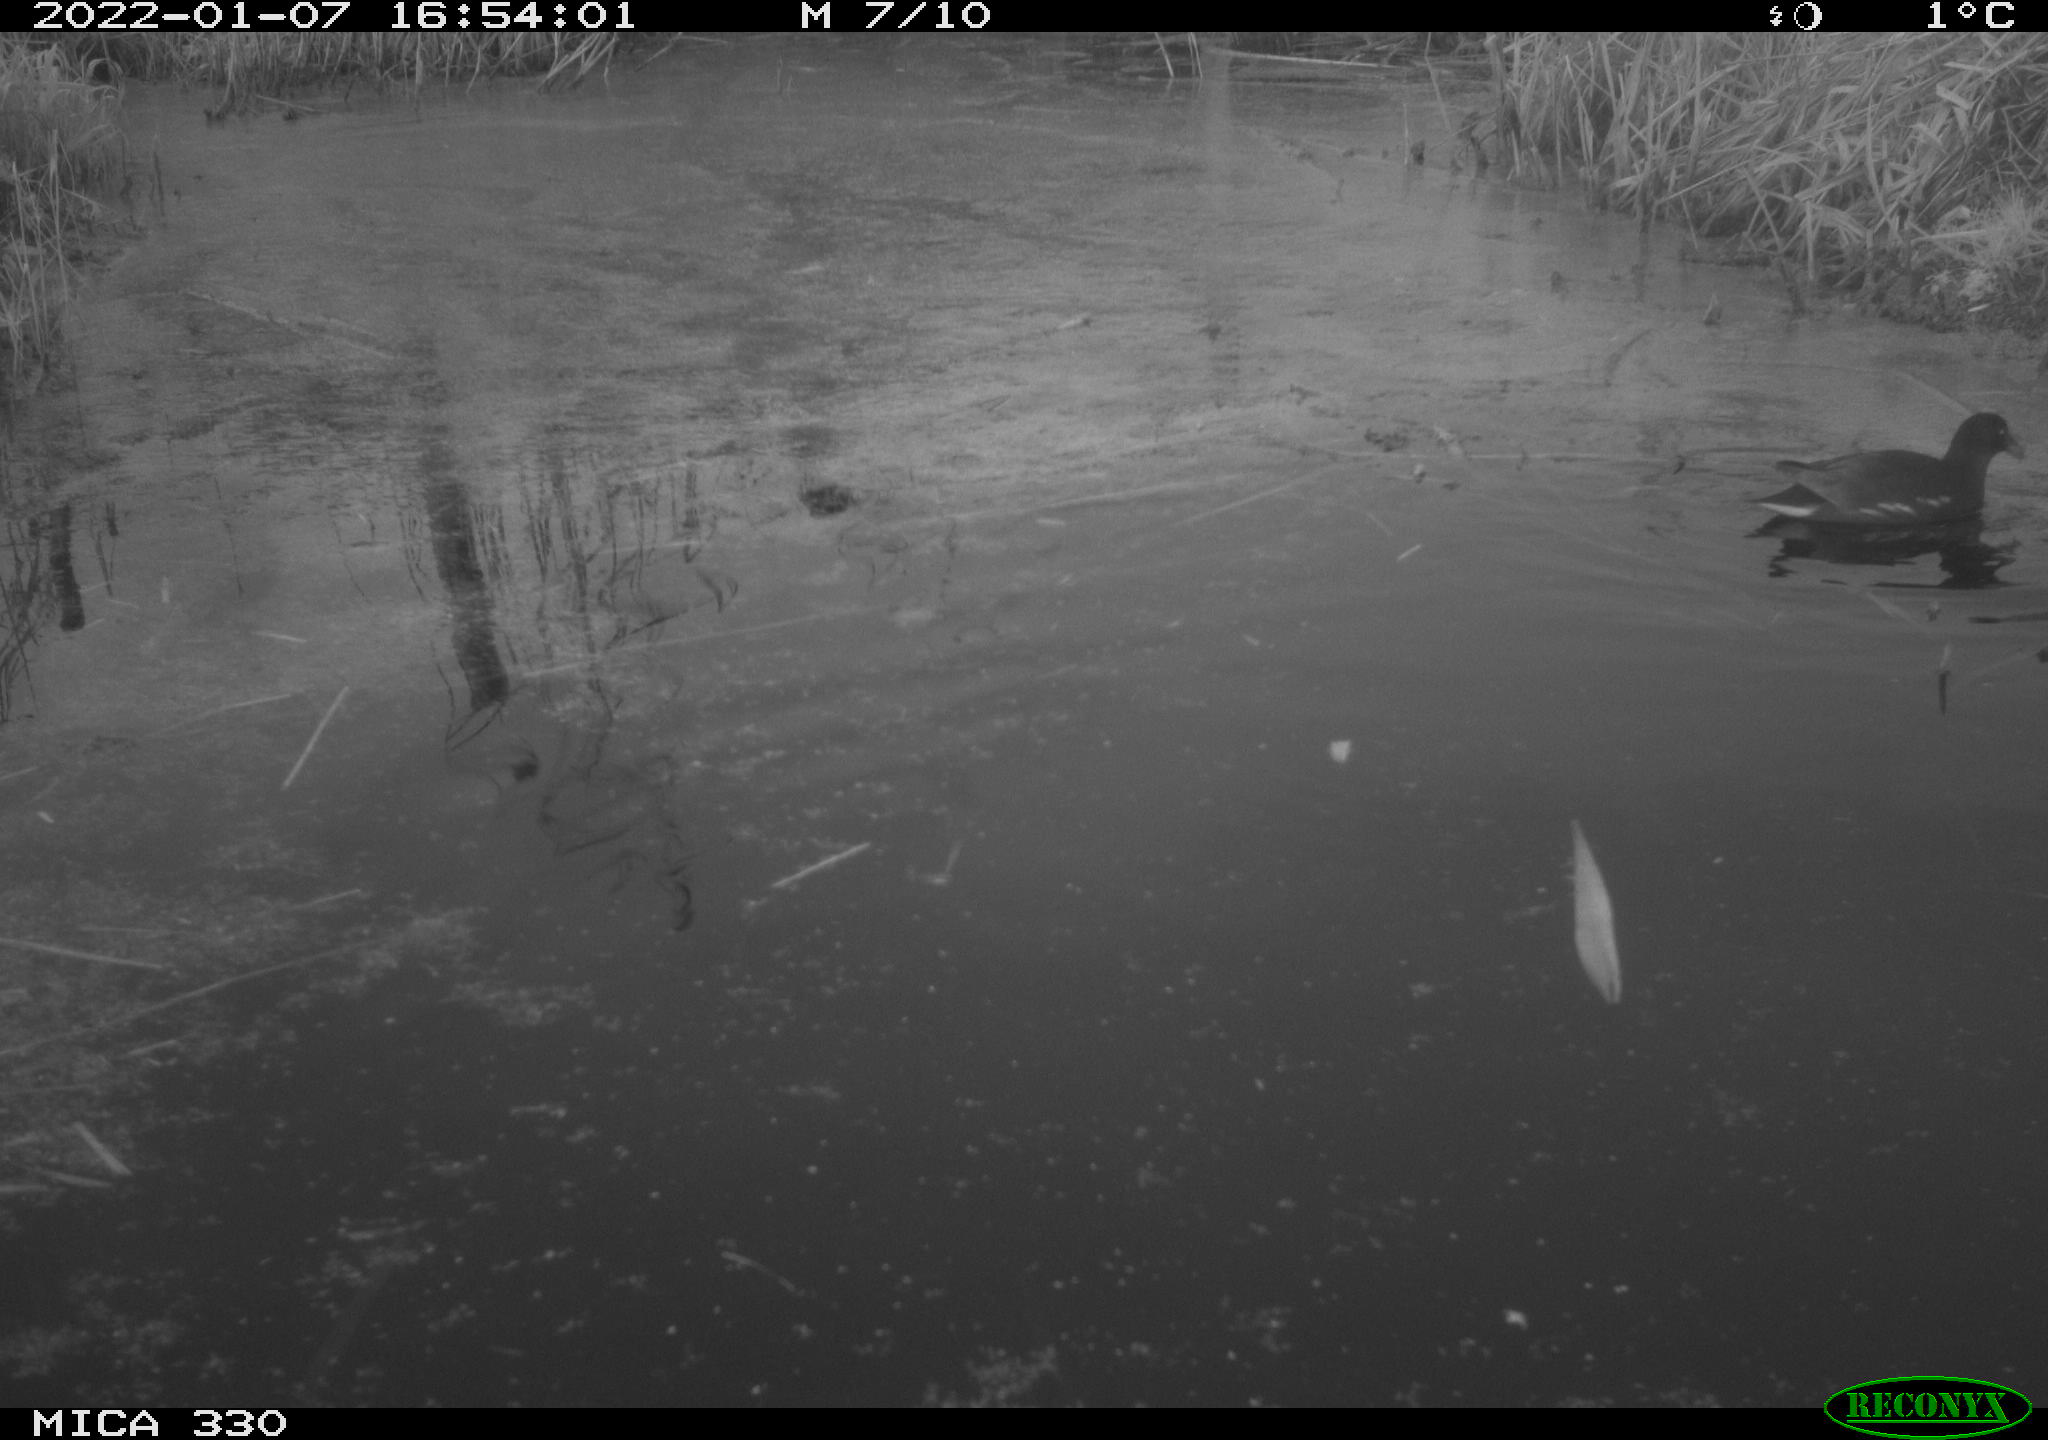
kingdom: Animalia
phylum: Chordata
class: Aves
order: Gruiformes
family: Rallidae
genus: Gallinula
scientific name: Gallinula chloropus
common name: Common moorhen
